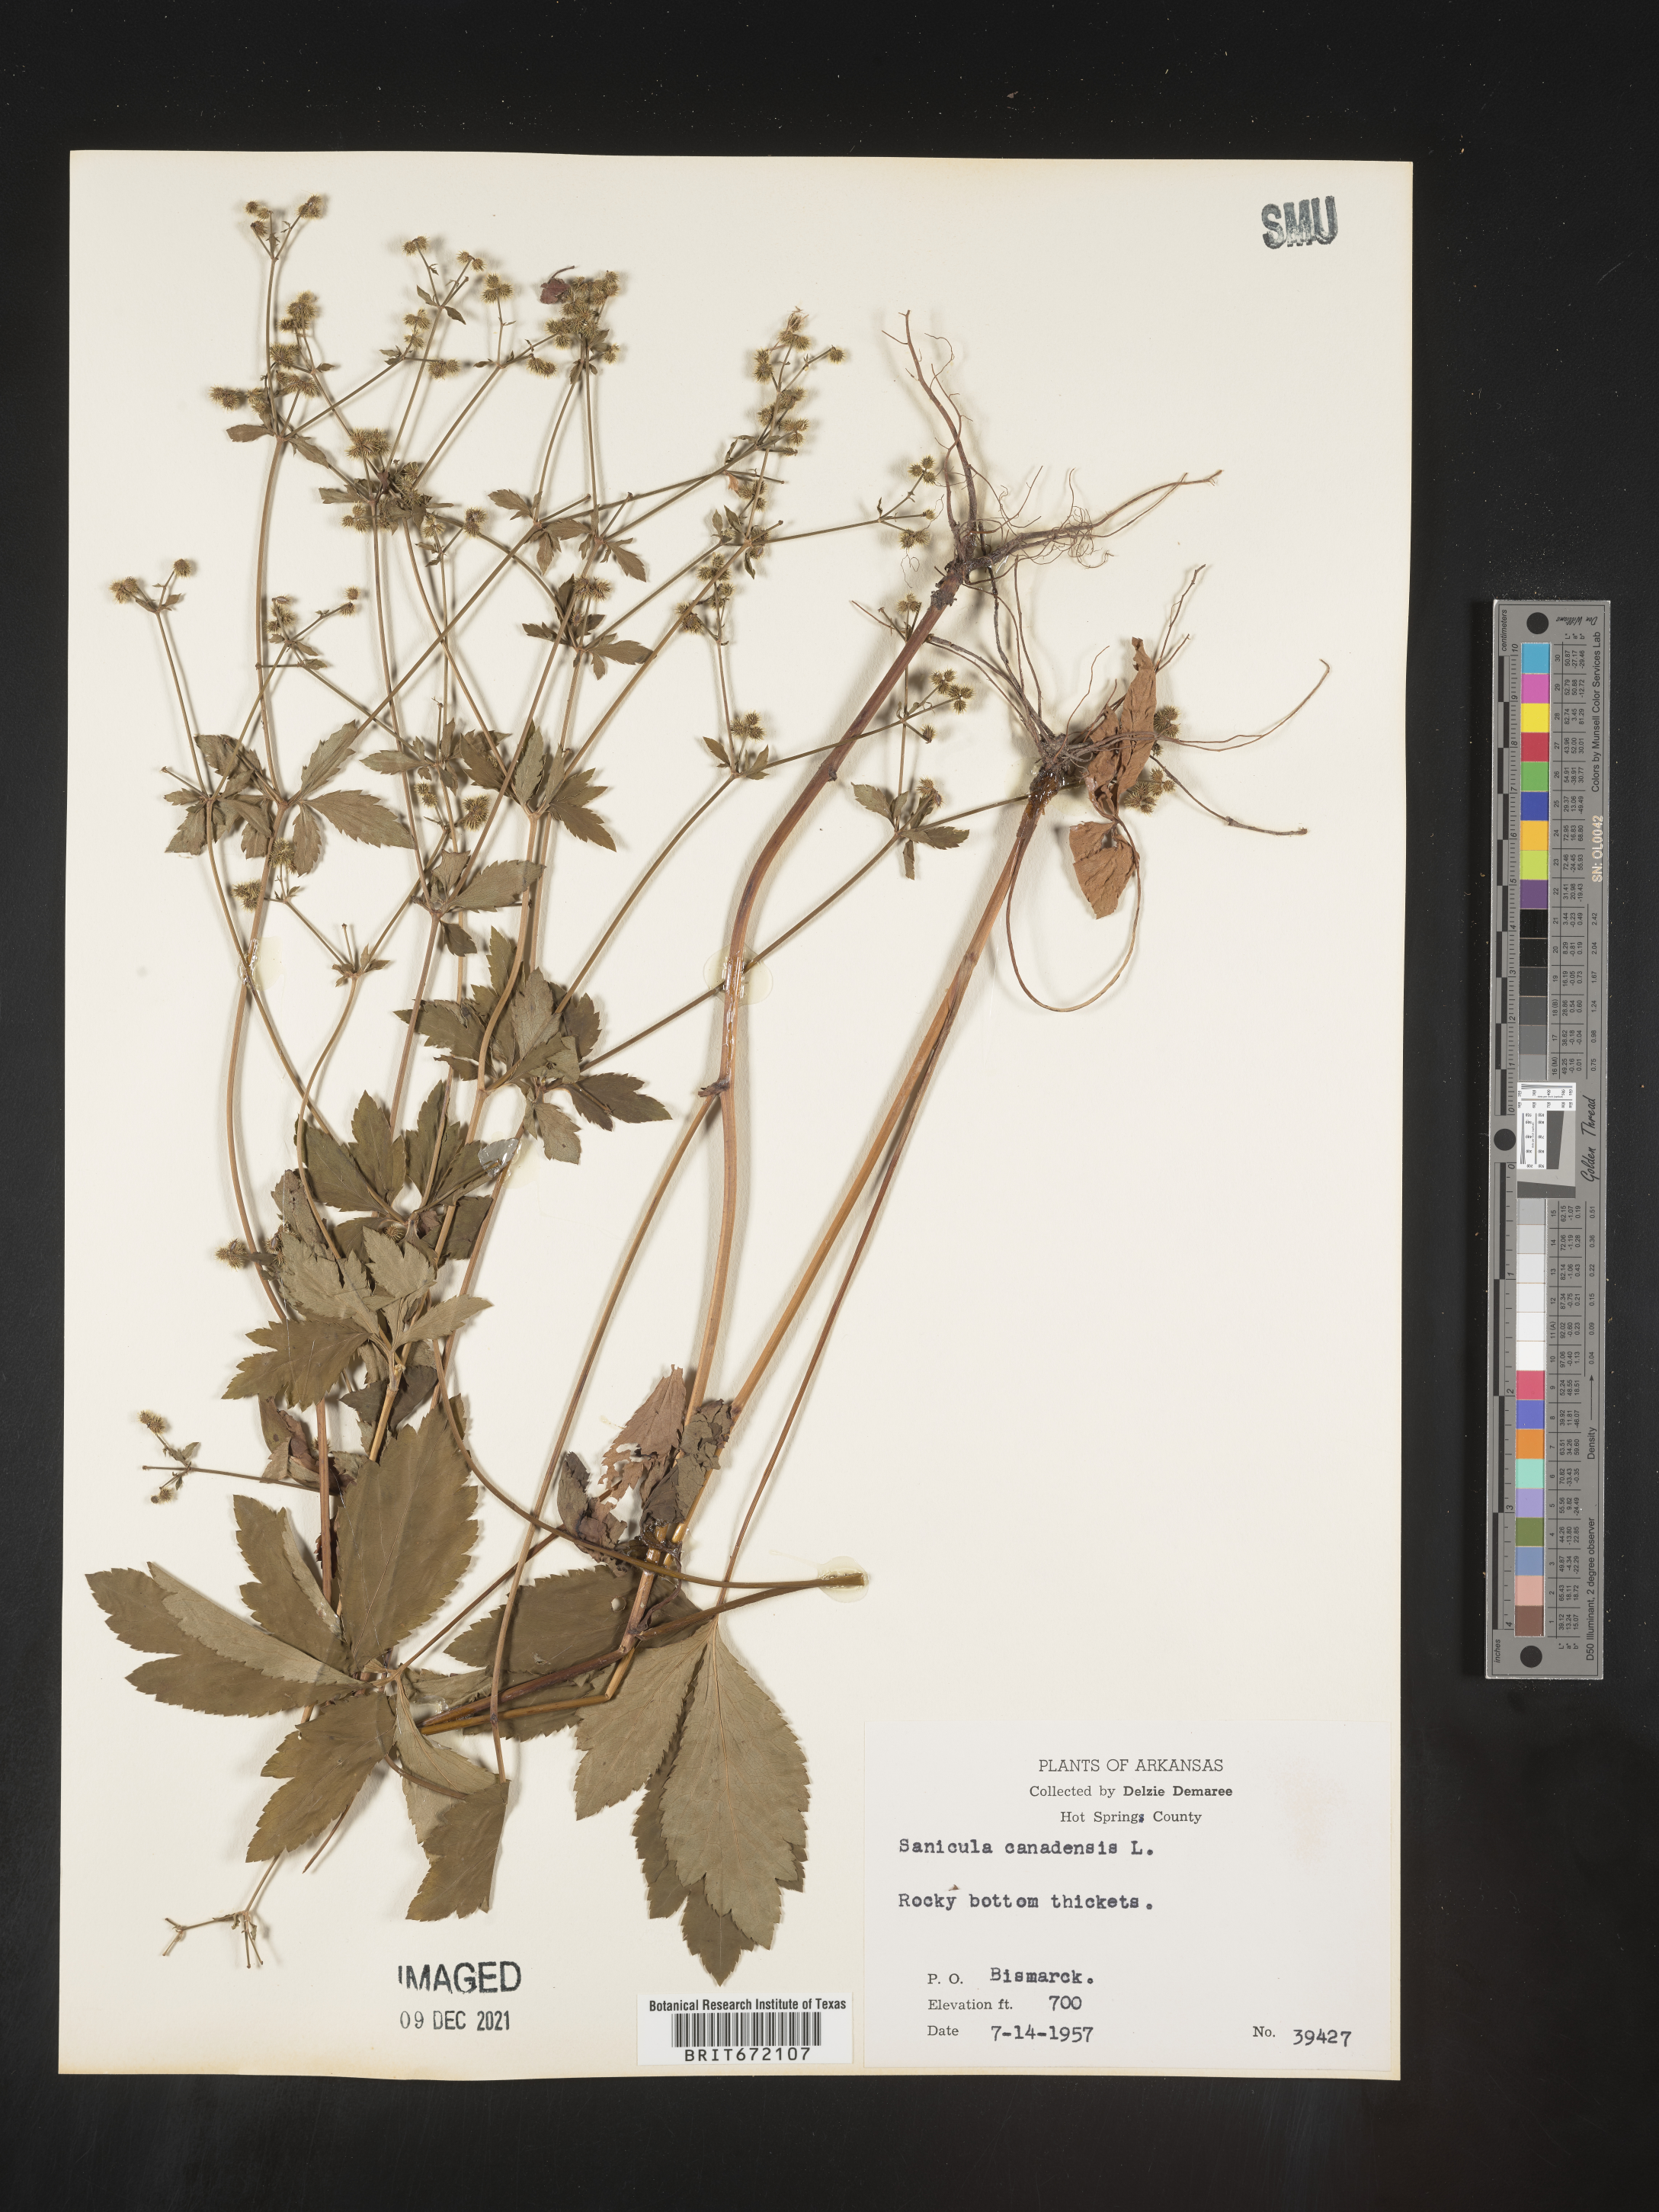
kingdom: Plantae
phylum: Tracheophyta
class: Magnoliopsida
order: Apiales
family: Apiaceae
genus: Sanicula
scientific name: Sanicula canadensis
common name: Canada sanicle
